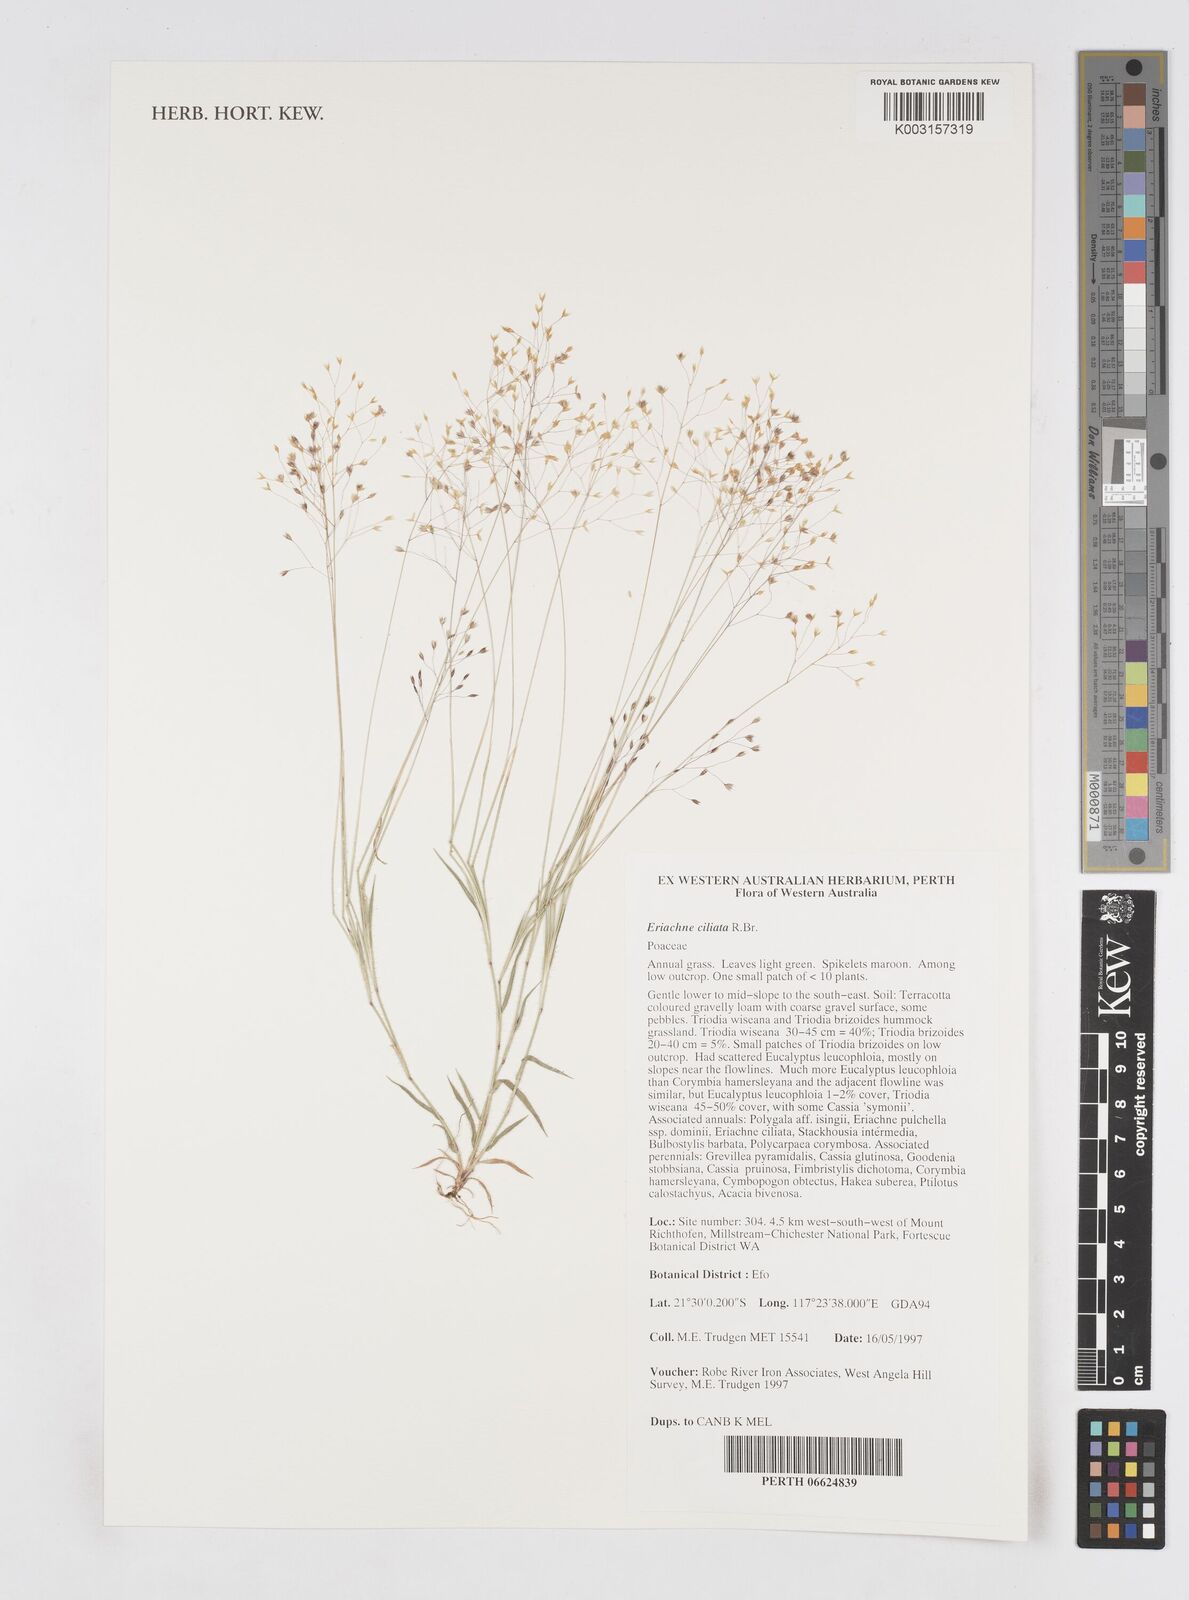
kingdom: Plantae
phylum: Tracheophyta
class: Liliopsida
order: Poales
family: Poaceae
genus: Eriachne
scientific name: Eriachne ciliata
